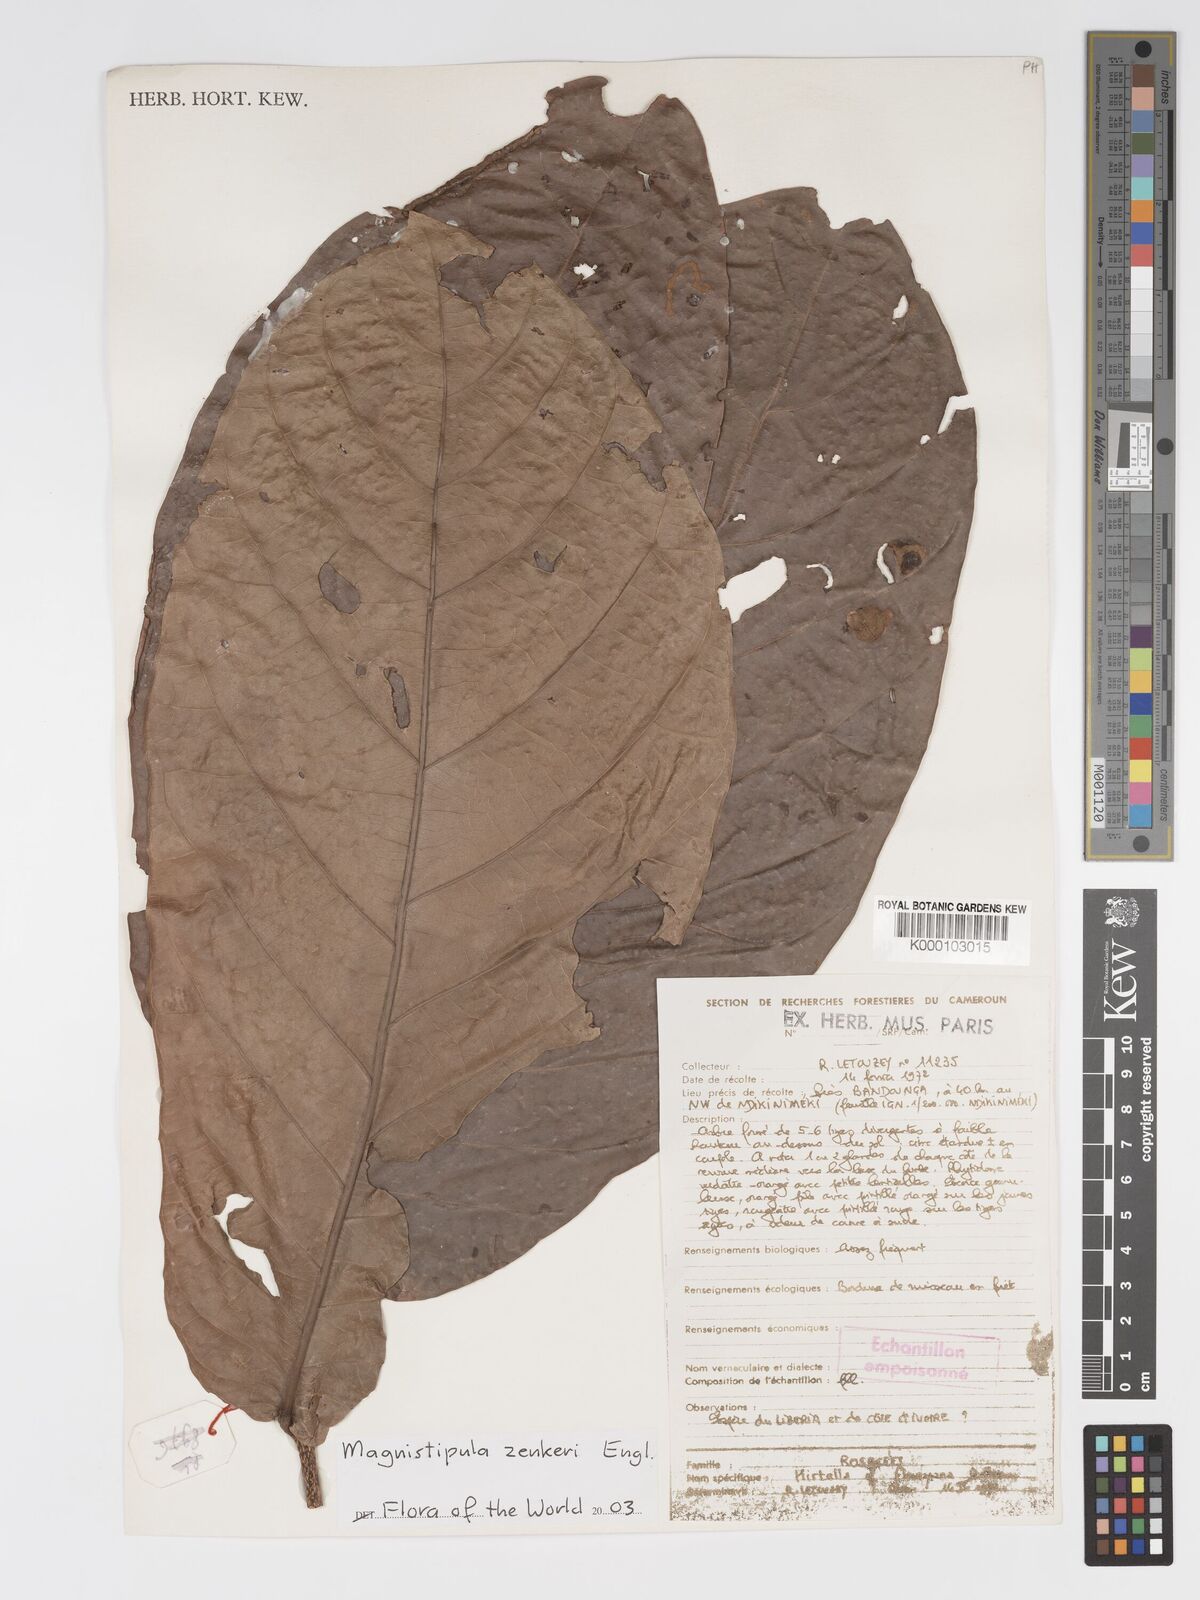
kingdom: Plantae
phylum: Tracheophyta
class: Magnoliopsida
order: Malpighiales
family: Chrysobalanaceae
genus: Magnistipula
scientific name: Magnistipula zenkeri
